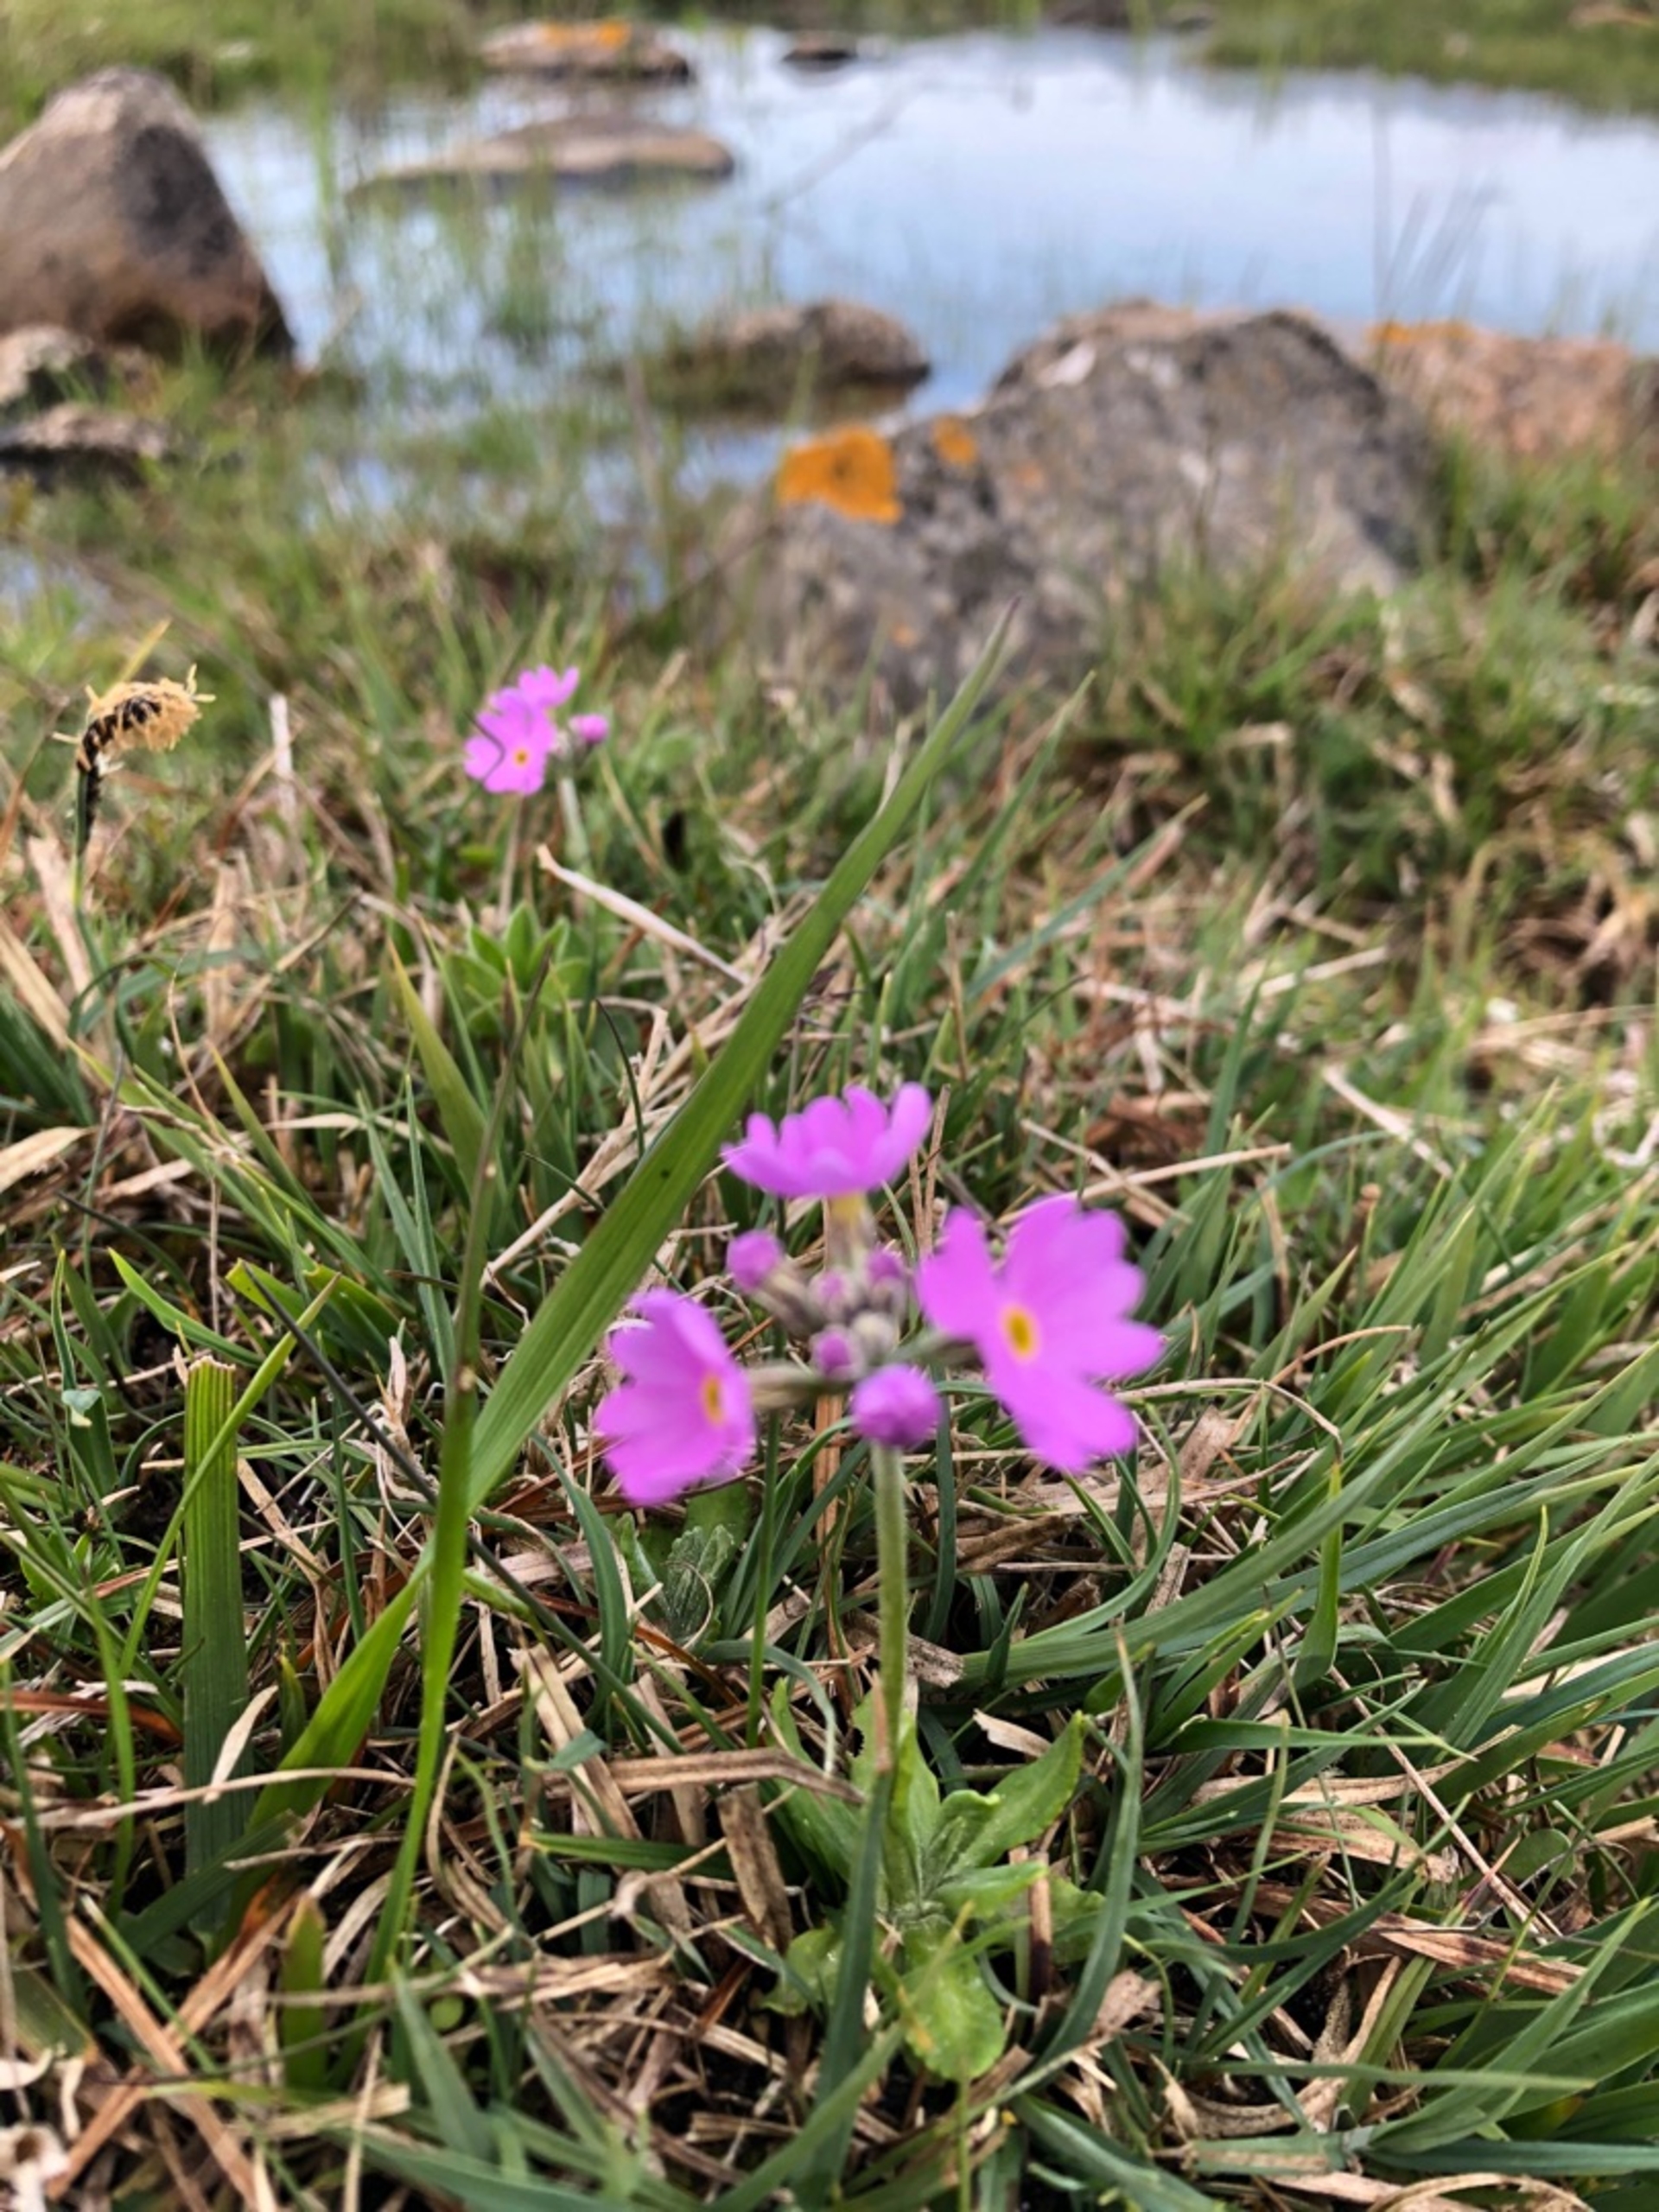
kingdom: Plantae
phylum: Tracheophyta
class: Magnoliopsida
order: Ericales
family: Primulaceae
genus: Primula
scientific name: Primula farinosa
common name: Melet kodriver
